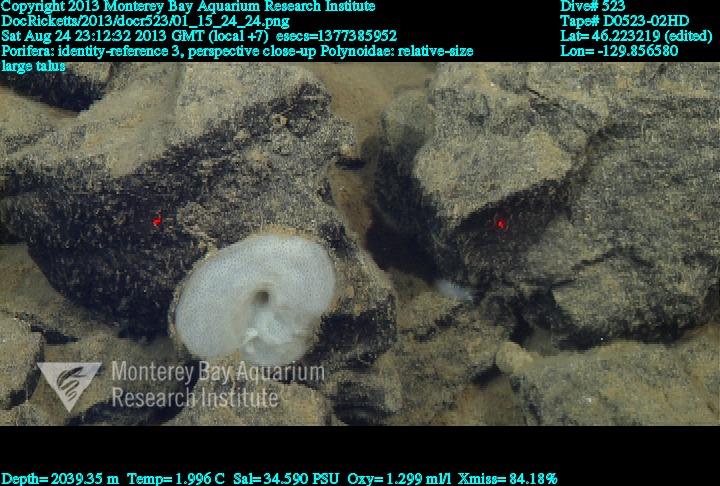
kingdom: Animalia
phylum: Porifera
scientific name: Porifera
